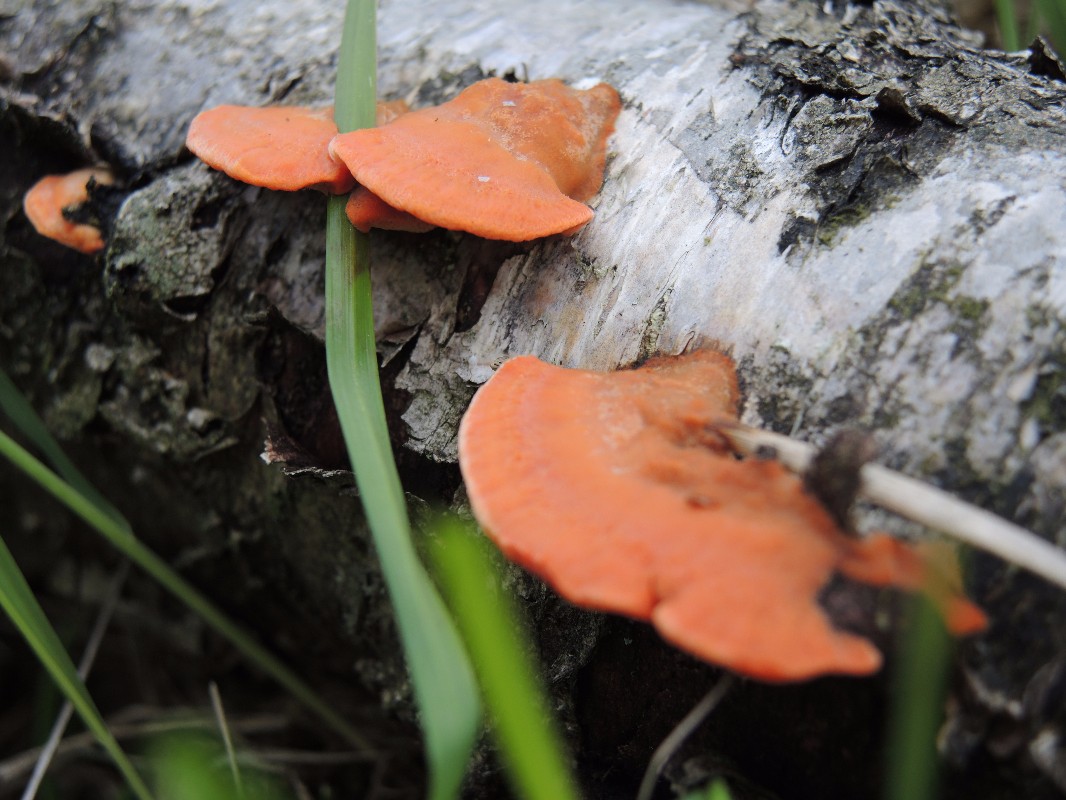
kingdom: Fungi
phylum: Basidiomycota
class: Agaricomycetes
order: Polyporales
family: Polyporaceae
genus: Trametes
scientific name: Trametes cinnabarina
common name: cinnoberporesvamp
